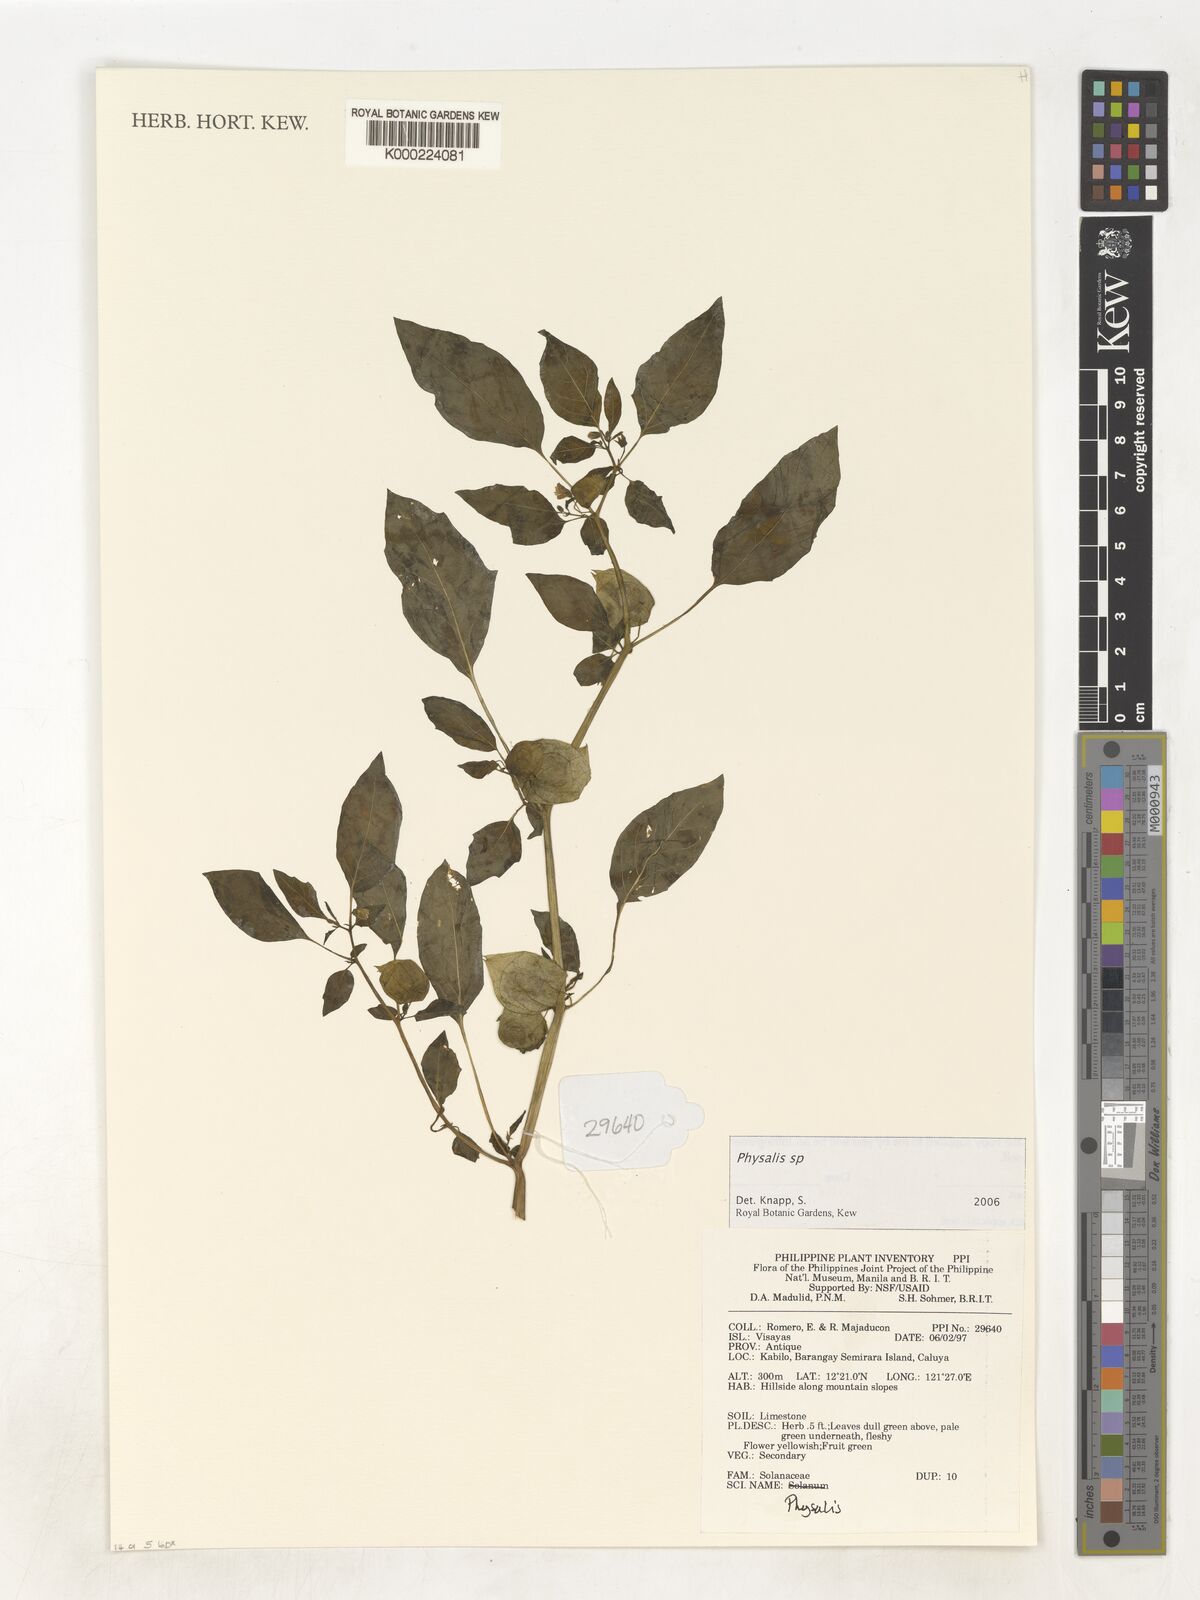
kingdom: Plantae
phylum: Tracheophyta
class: Magnoliopsida
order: Solanales
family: Solanaceae
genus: Physalis
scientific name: Physalis
